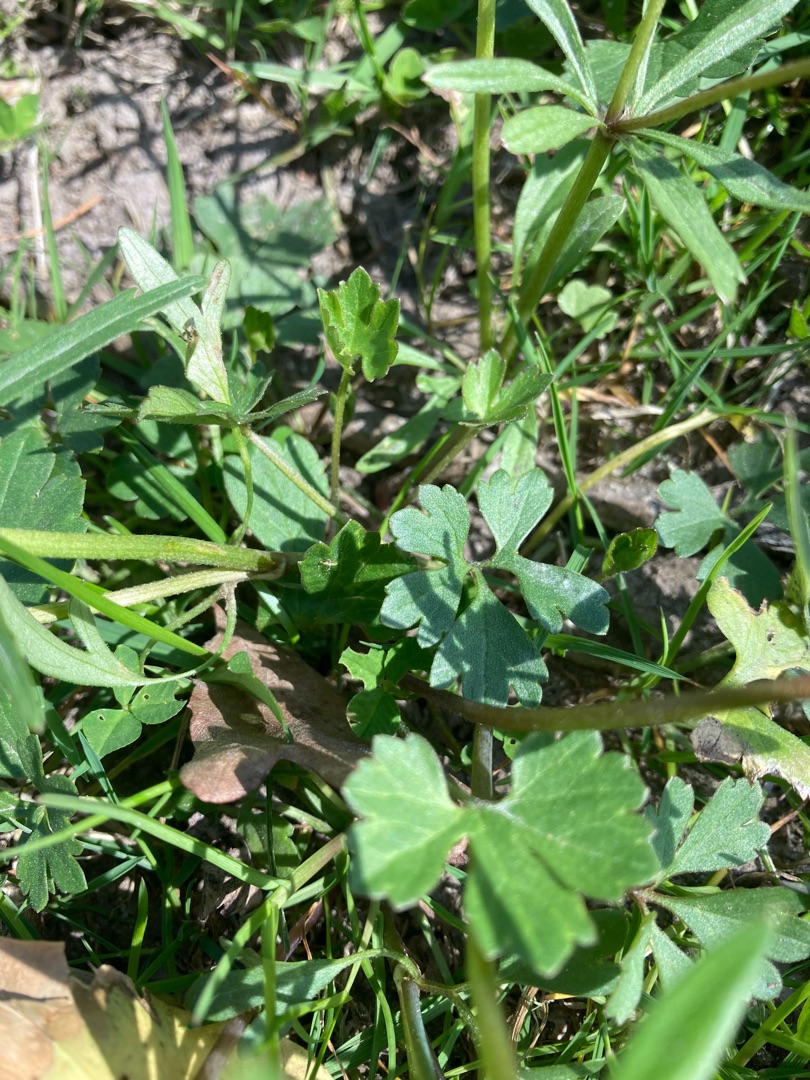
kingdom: Plantae
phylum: Tracheophyta
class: Magnoliopsida
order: Ranunculales
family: Ranunculaceae
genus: Ranunculus
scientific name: Ranunculus auricomus
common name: Nyrebladet ranunkel
